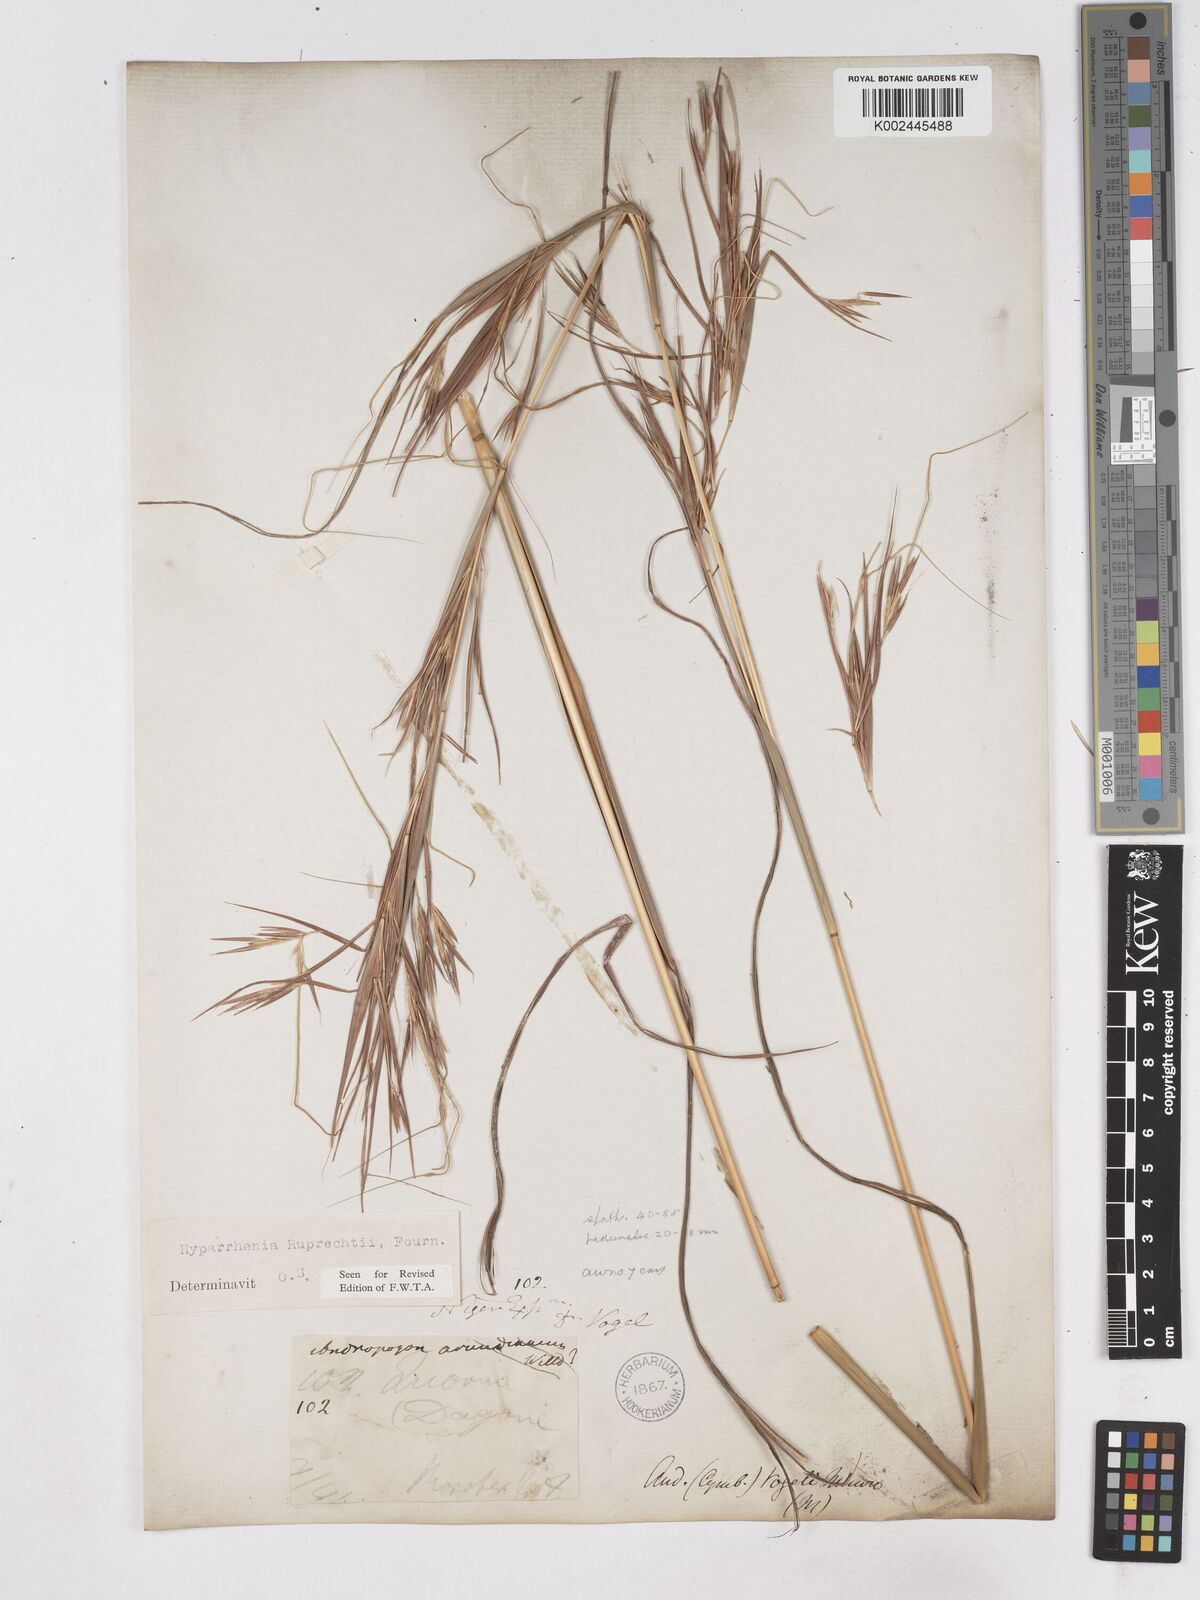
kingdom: Plantae
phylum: Tracheophyta
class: Liliopsida
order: Poales
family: Poaceae
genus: Hyperthelia
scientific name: Hyperthelia dissoluta
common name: Yellow thatching grass
